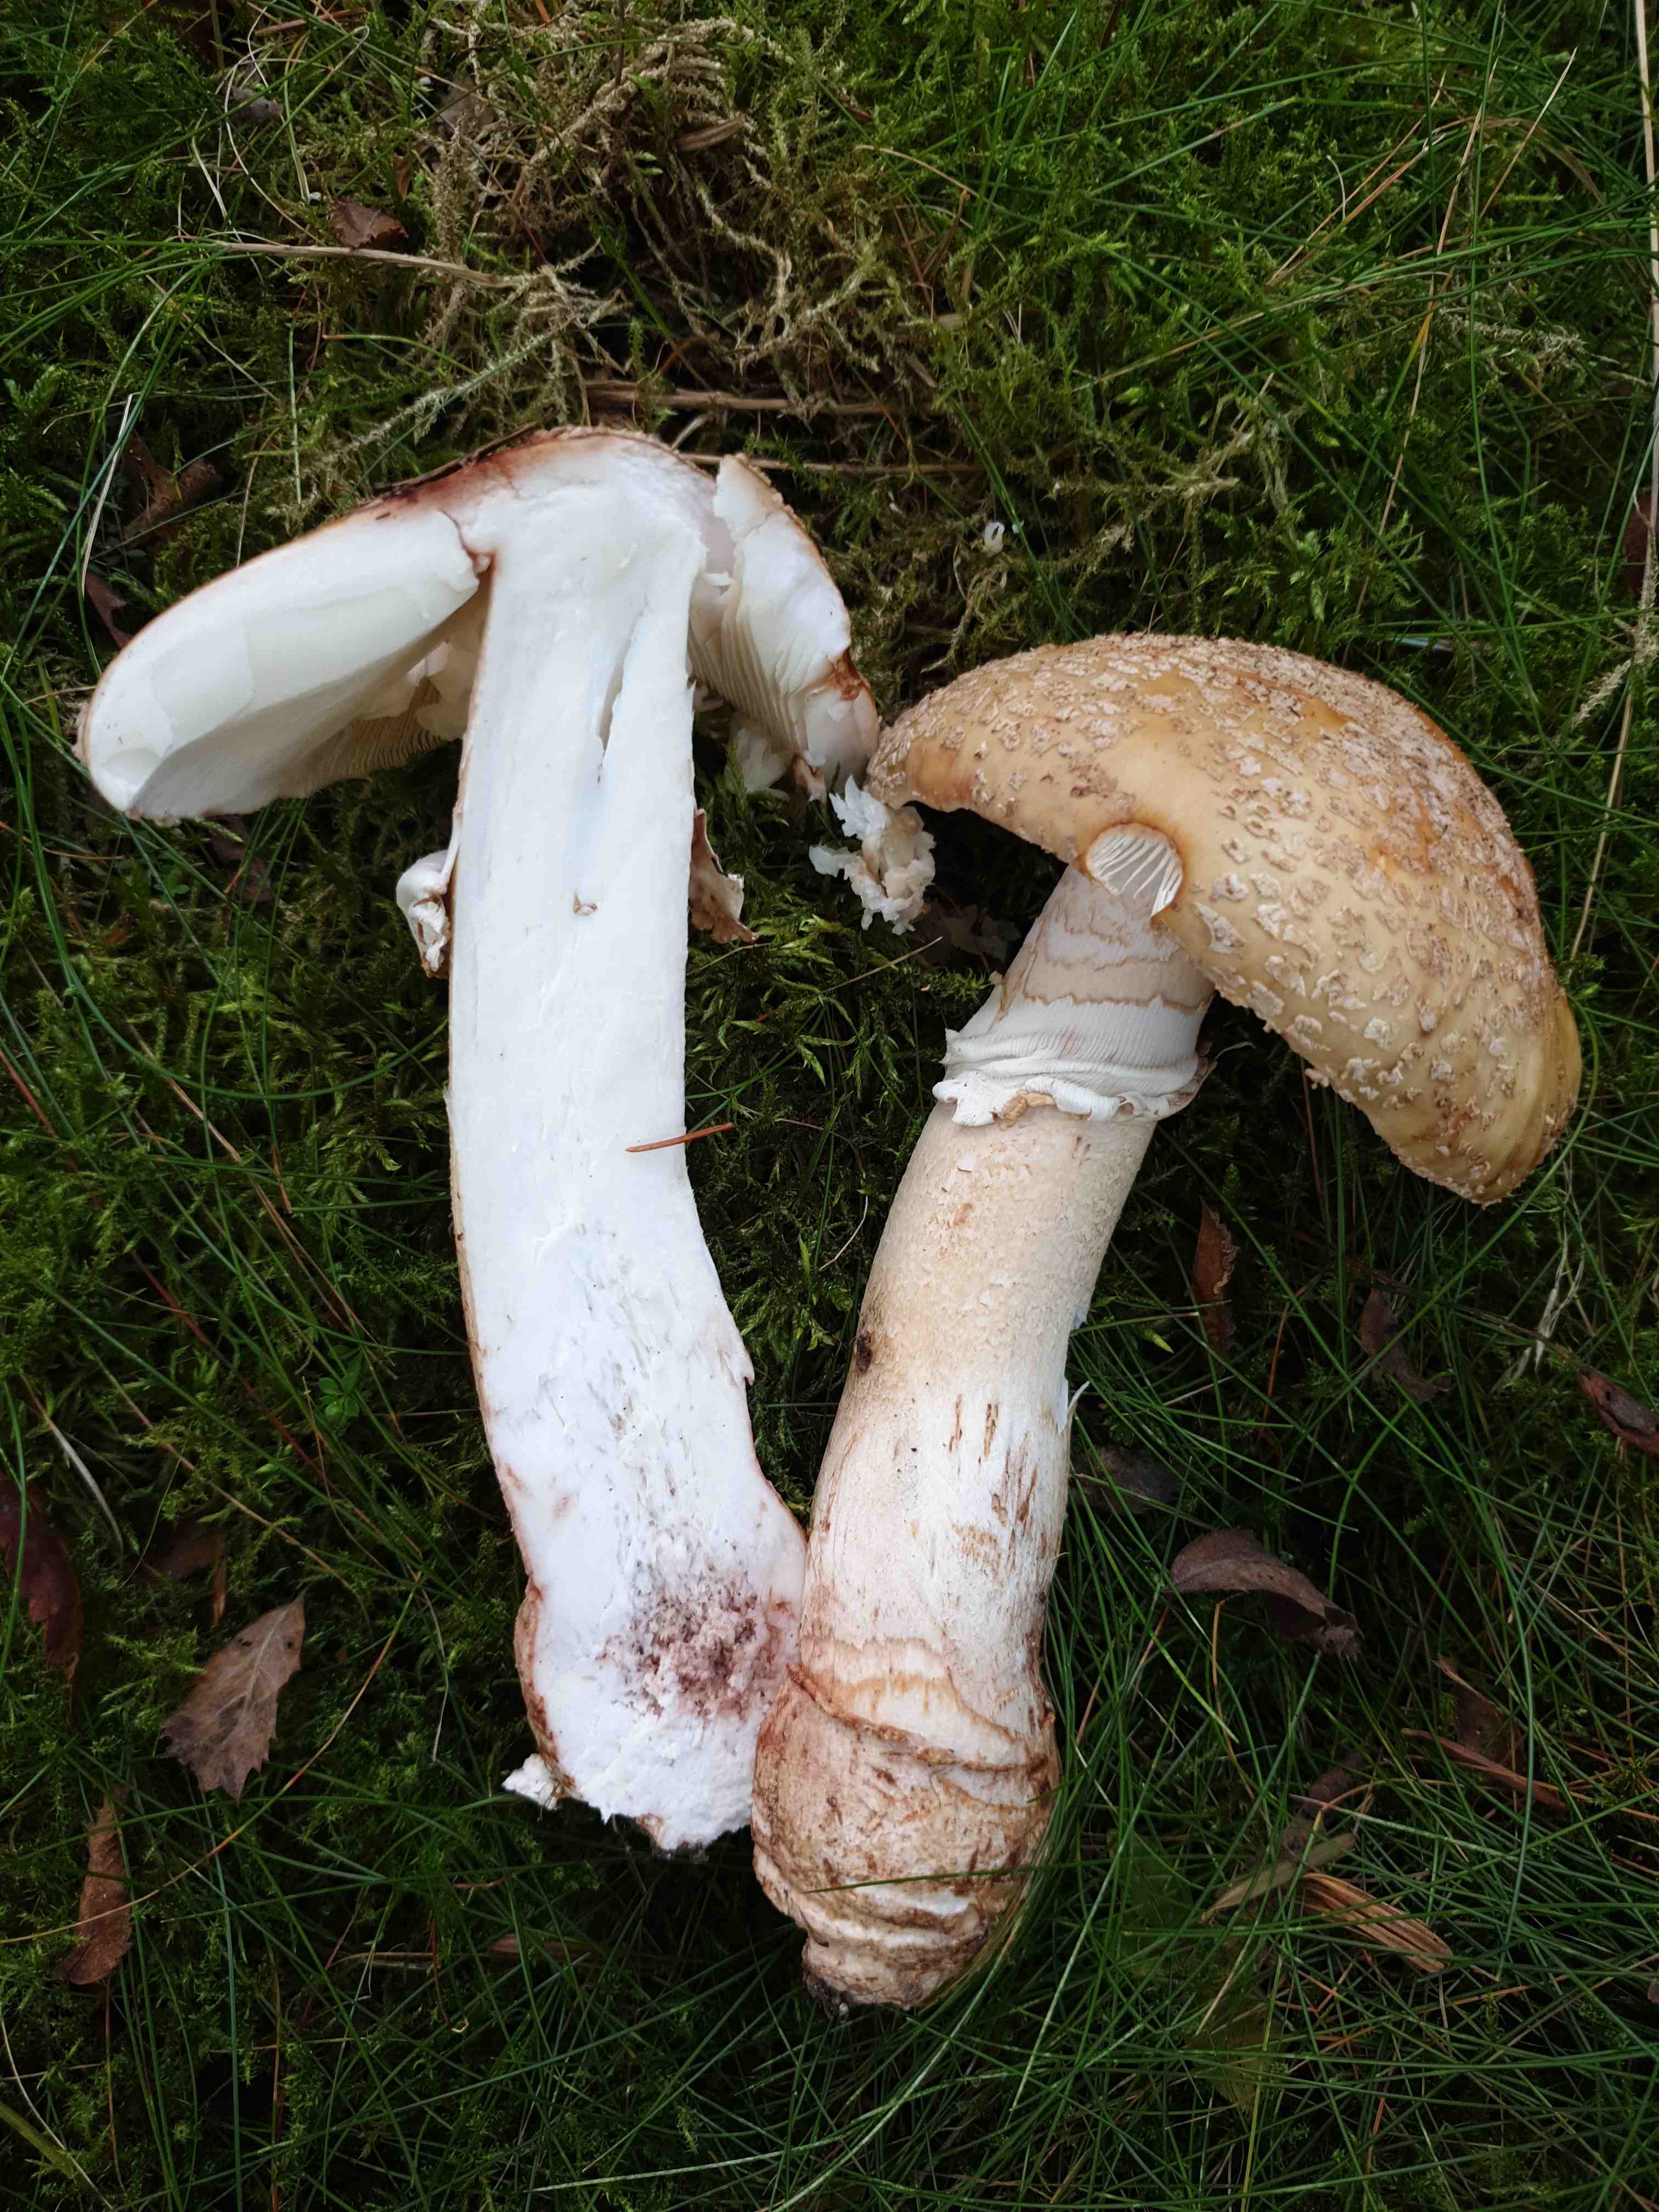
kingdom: Fungi
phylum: Basidiomycota
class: Agaricomycetes
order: Agaricales
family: Amanitaceae
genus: Amanita
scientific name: Amanita rubescens
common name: rødmende fluesvamp
